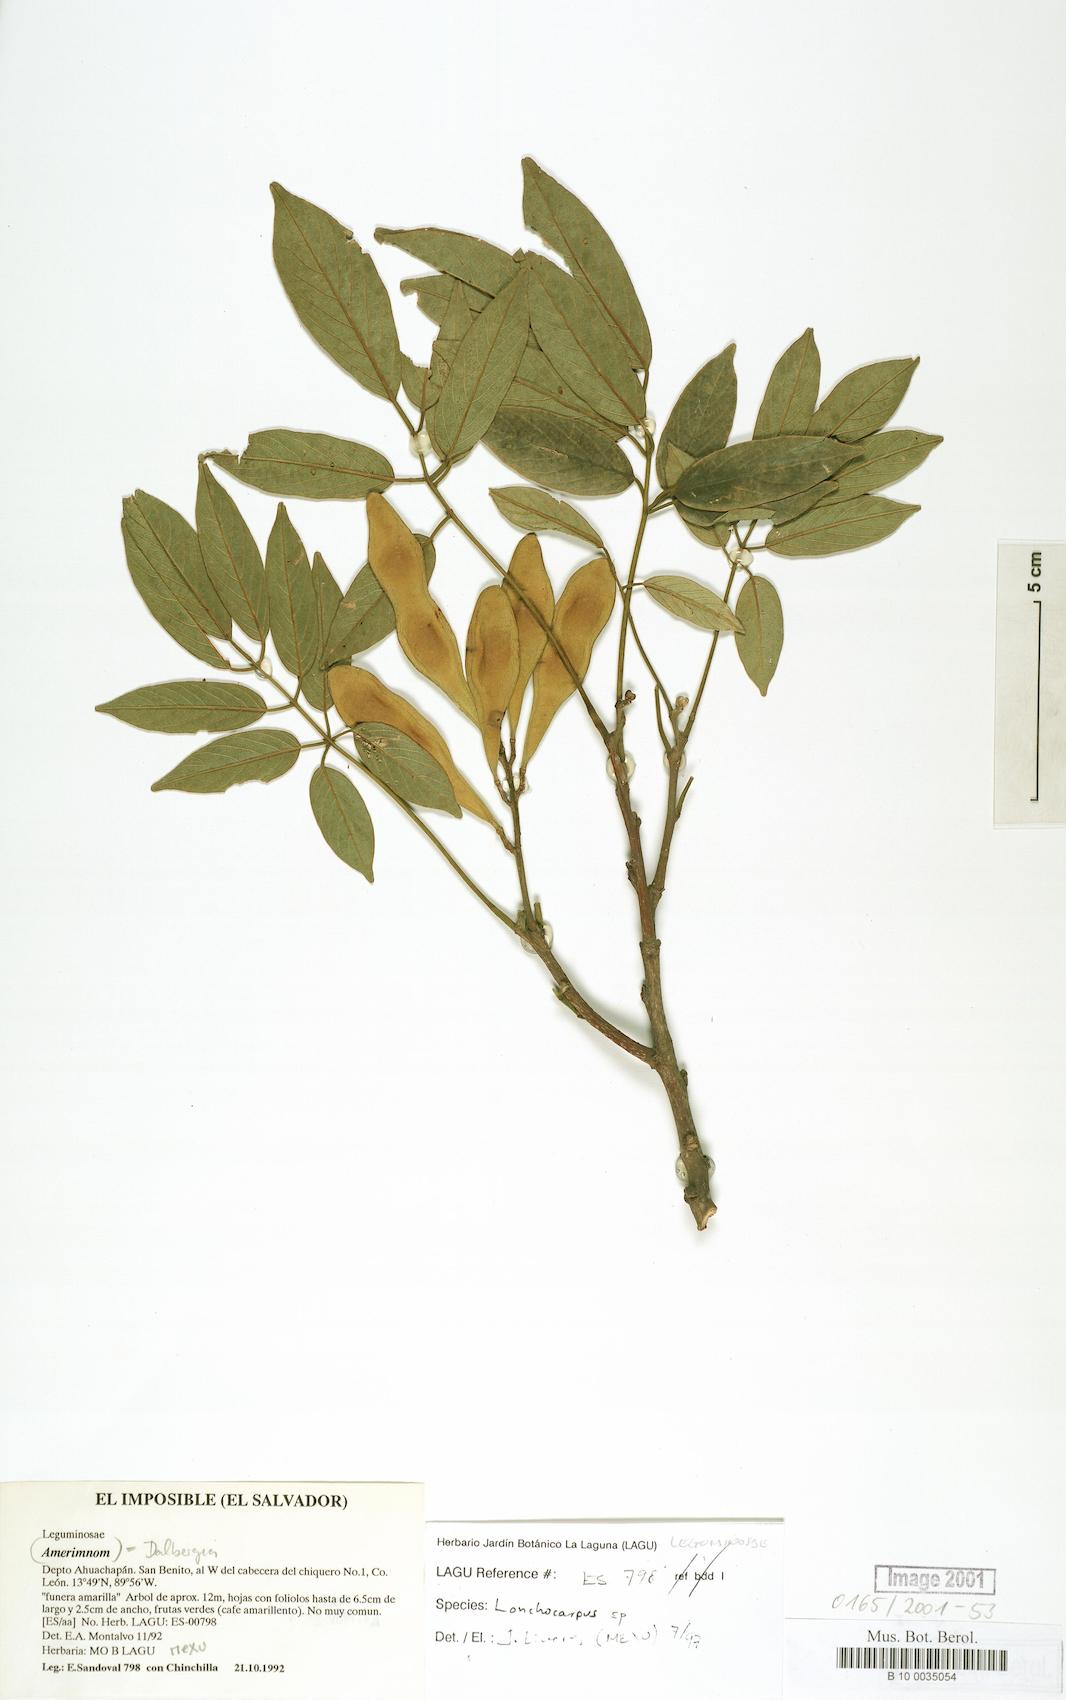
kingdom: Plantae
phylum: Tracheophyta
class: Magnoliopsida
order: Fabales
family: Fabaceae
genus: Lonchocarpus
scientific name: Lonchocarpus purpureus
